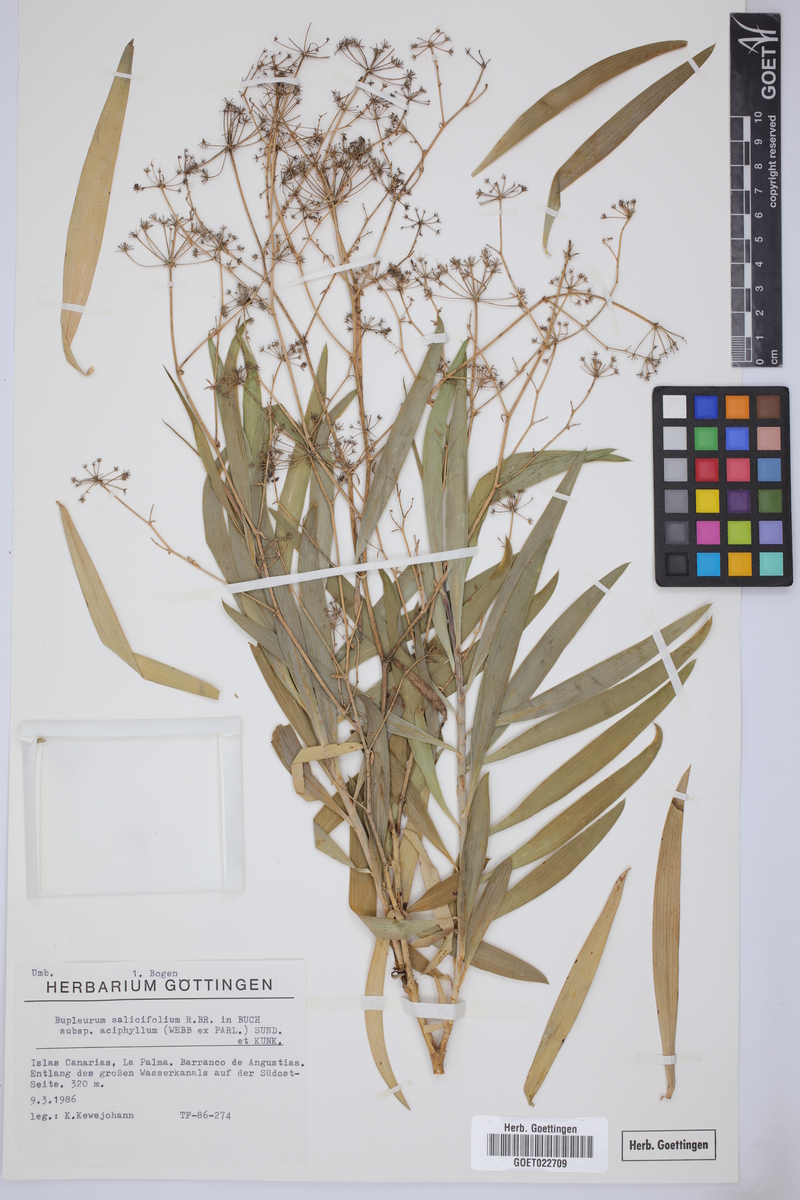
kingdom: Plantae
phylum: Tracheophyta
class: Magnoliopsida
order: Apiales
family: Apiaceae
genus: Bupleurum
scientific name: Bupleurum salicifolium
